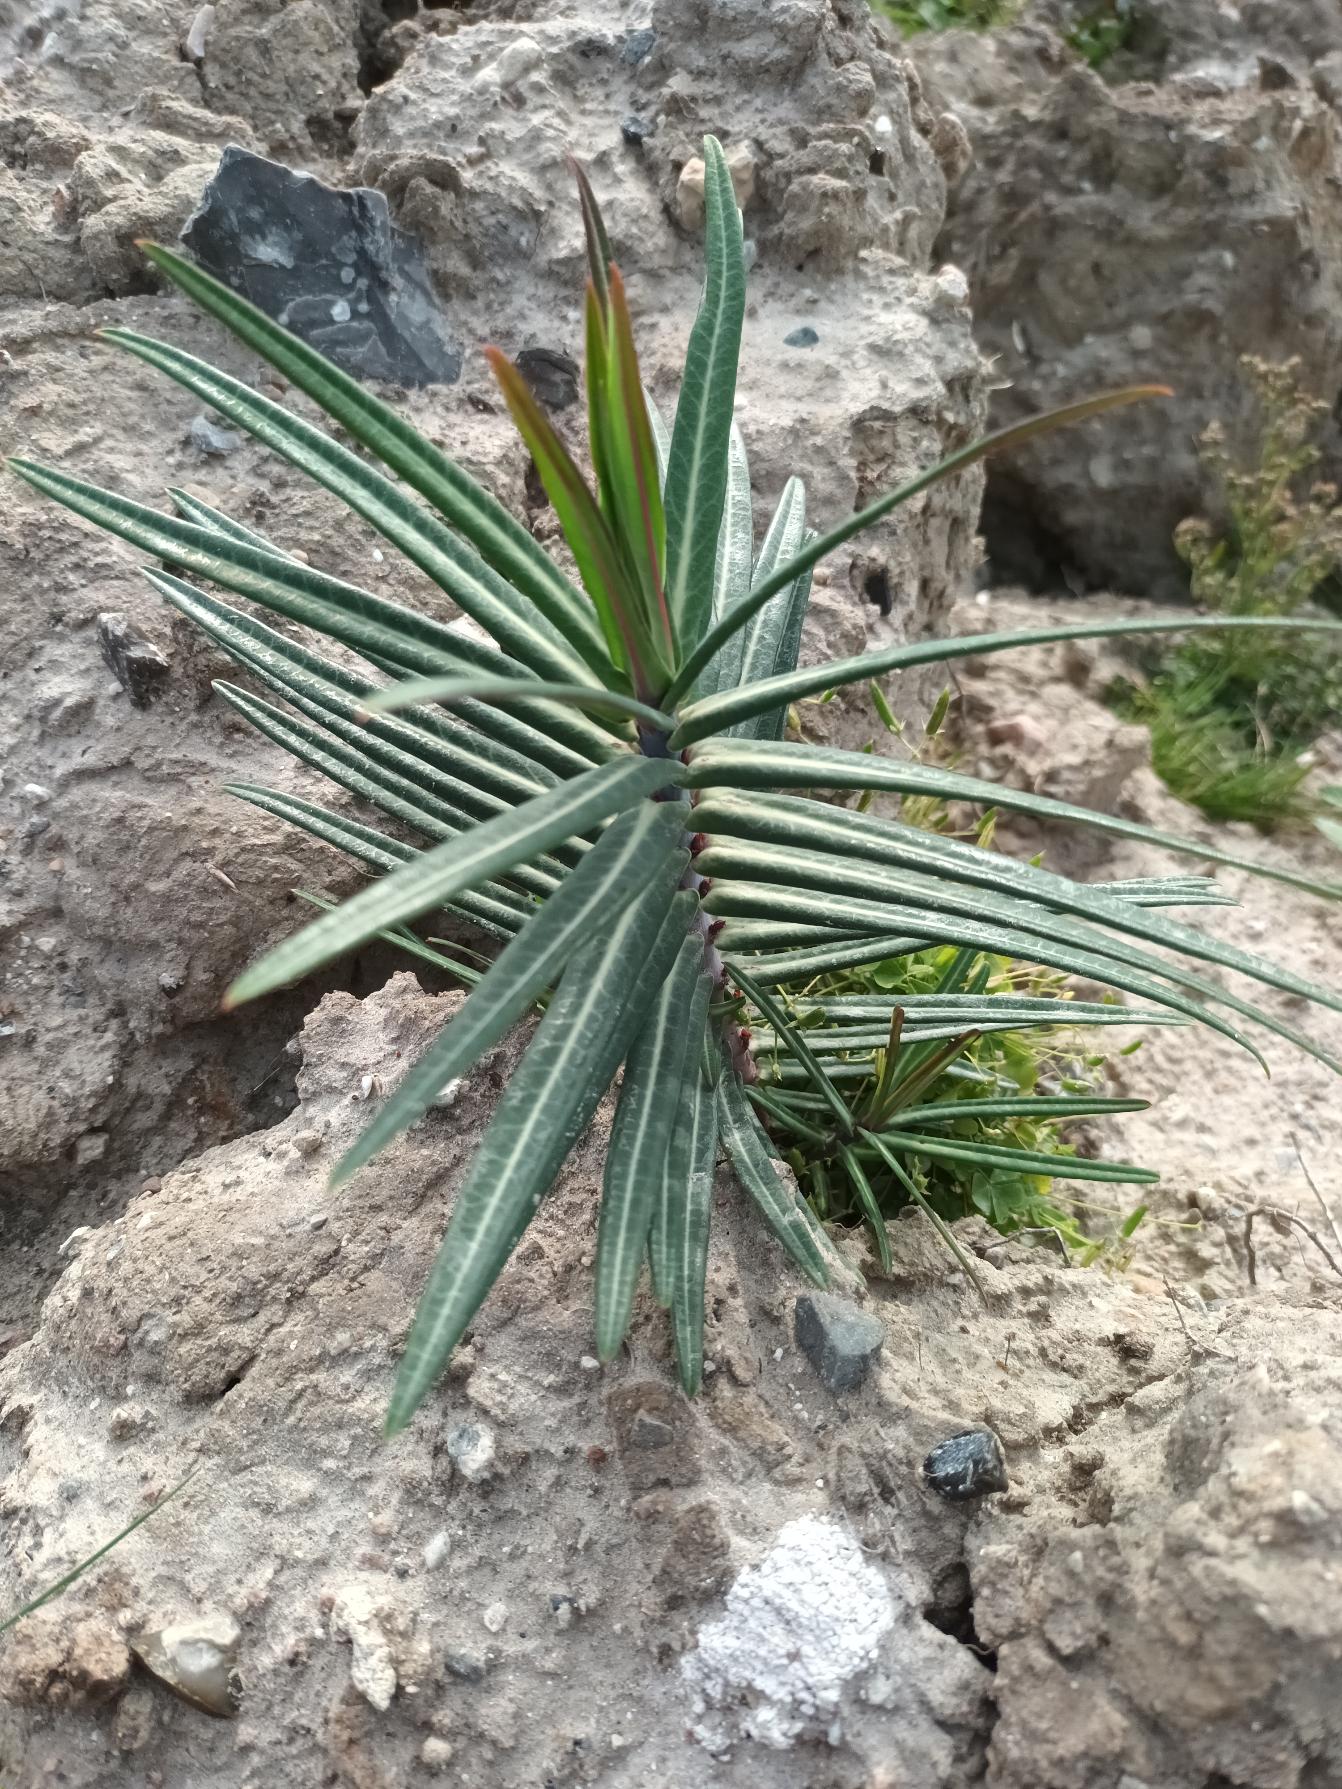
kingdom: Plantae
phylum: Tracheophyta
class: Magnoliopsida
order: Malpighiales
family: Euphorbiaceae
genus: Euphorbia
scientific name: Euphorbia lathyris
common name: Kors-vortemælk
